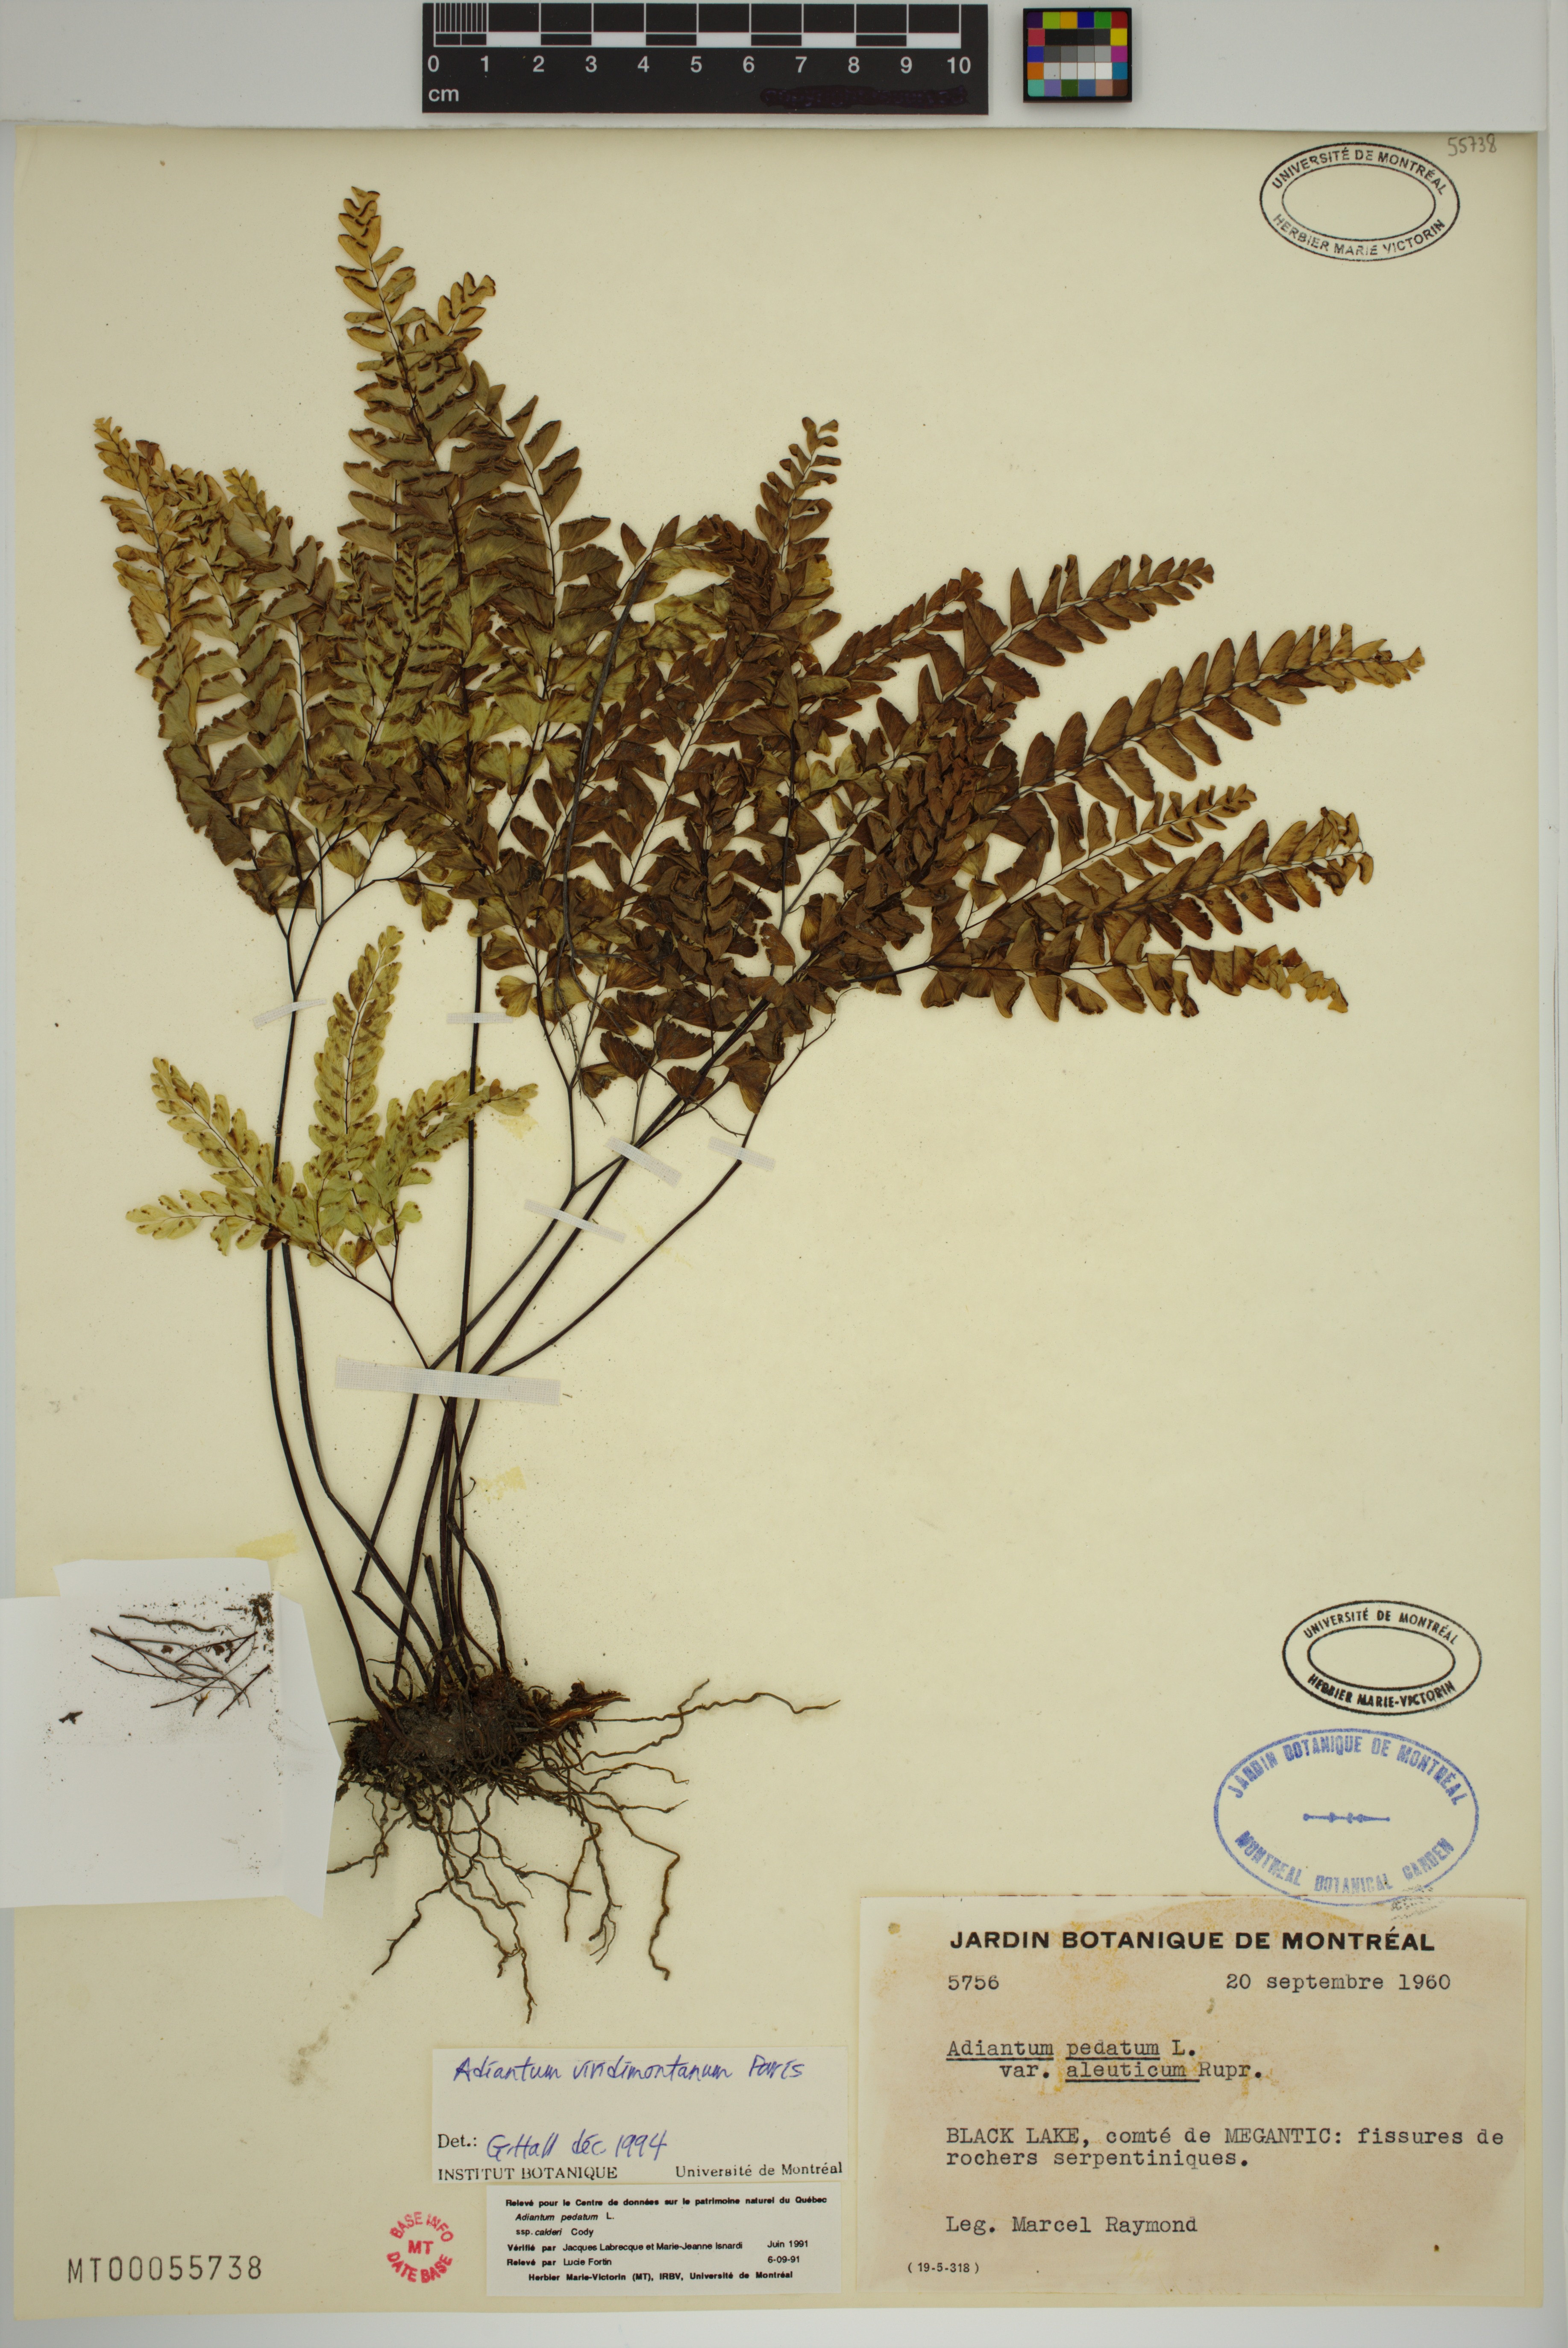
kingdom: Plantae
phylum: Tracheophyta
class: Polypodiopsida
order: Polypodiales
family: Pteridaceae
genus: Adiantum
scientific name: Adiantum viridimontanum
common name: Green mountain maidenhair
